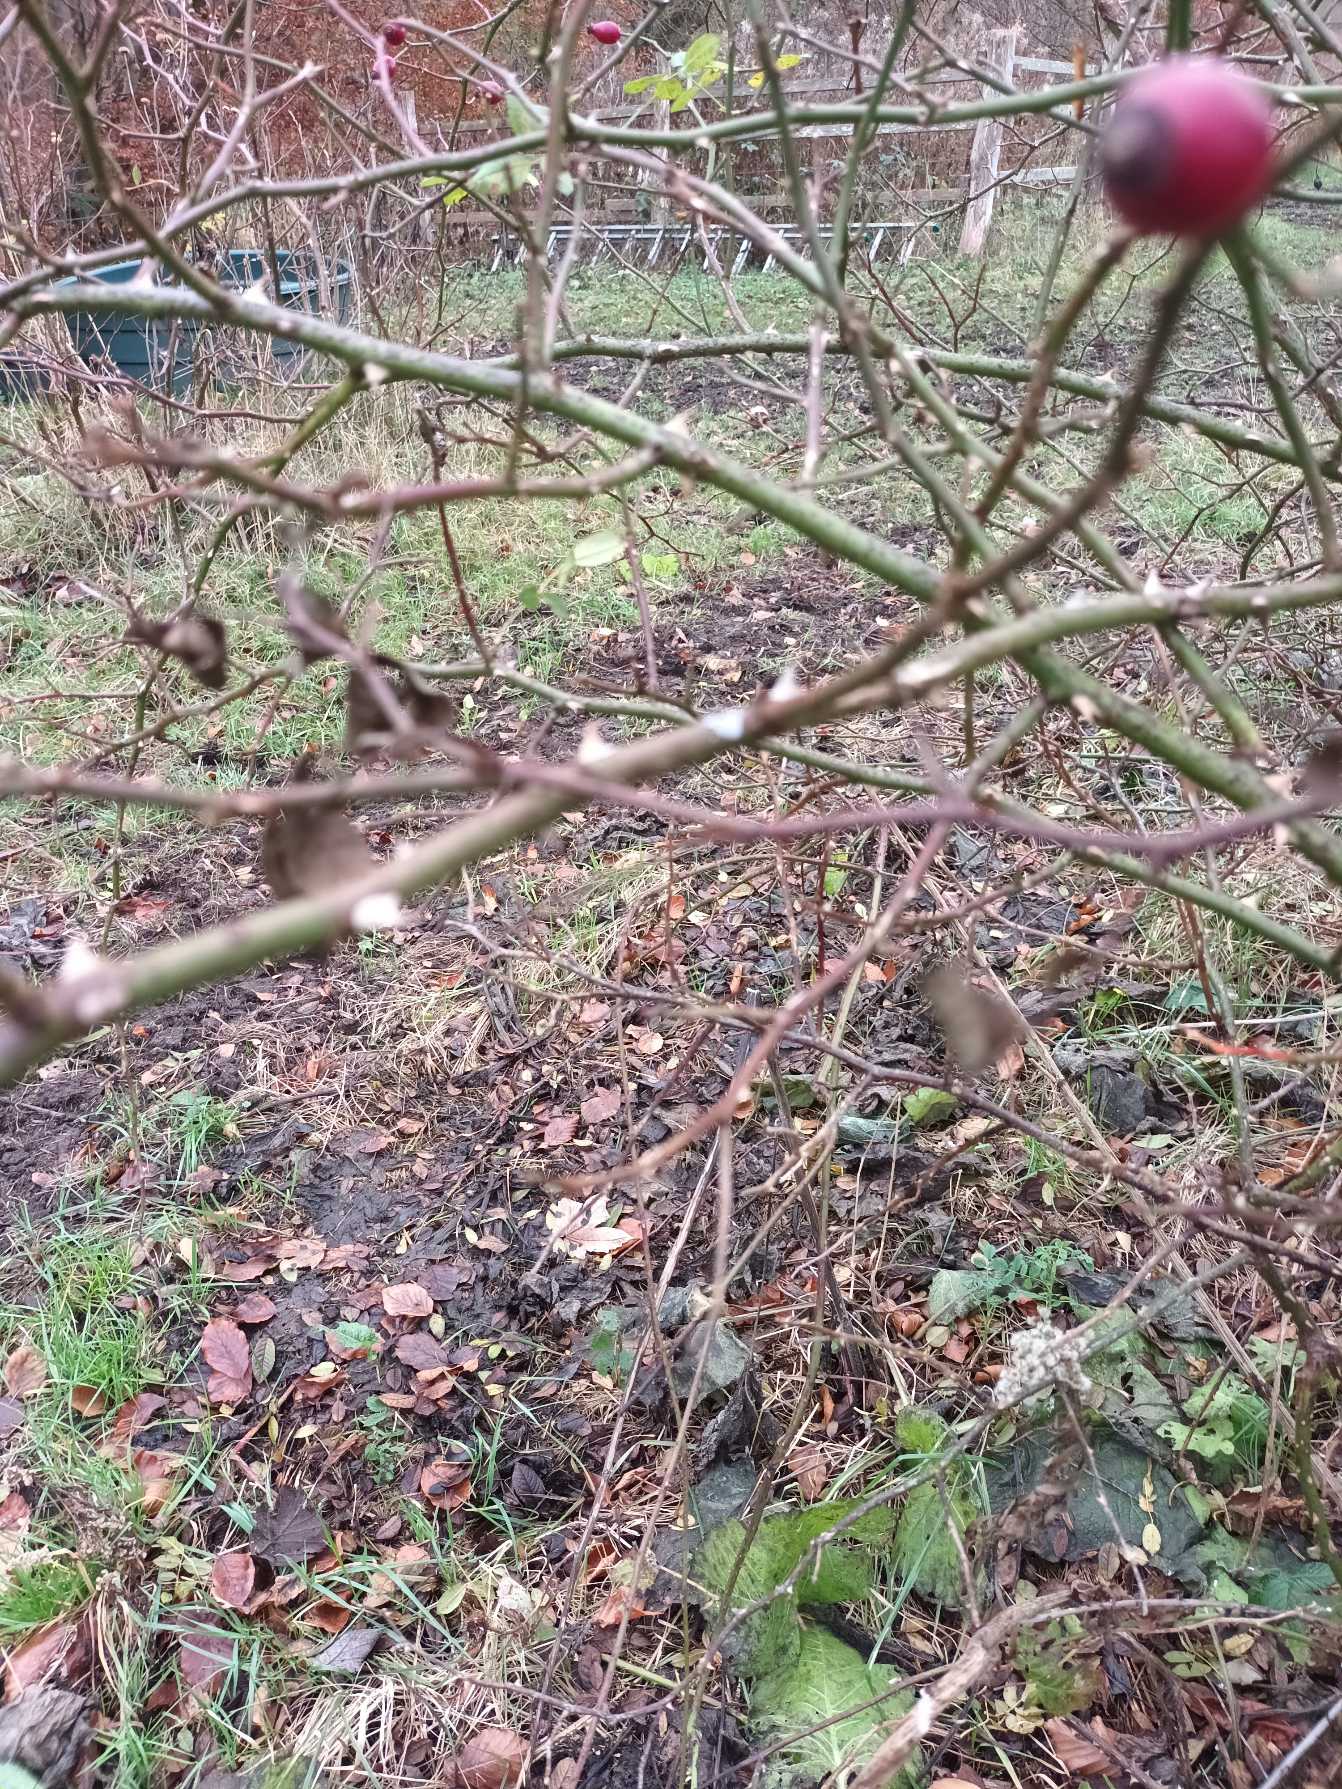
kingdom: Plantae
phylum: Tracheophyta
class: Magnoliopsida
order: Rosales
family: Rosaceae
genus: Rosa
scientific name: Rosa canina
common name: Glat hunde-rose
